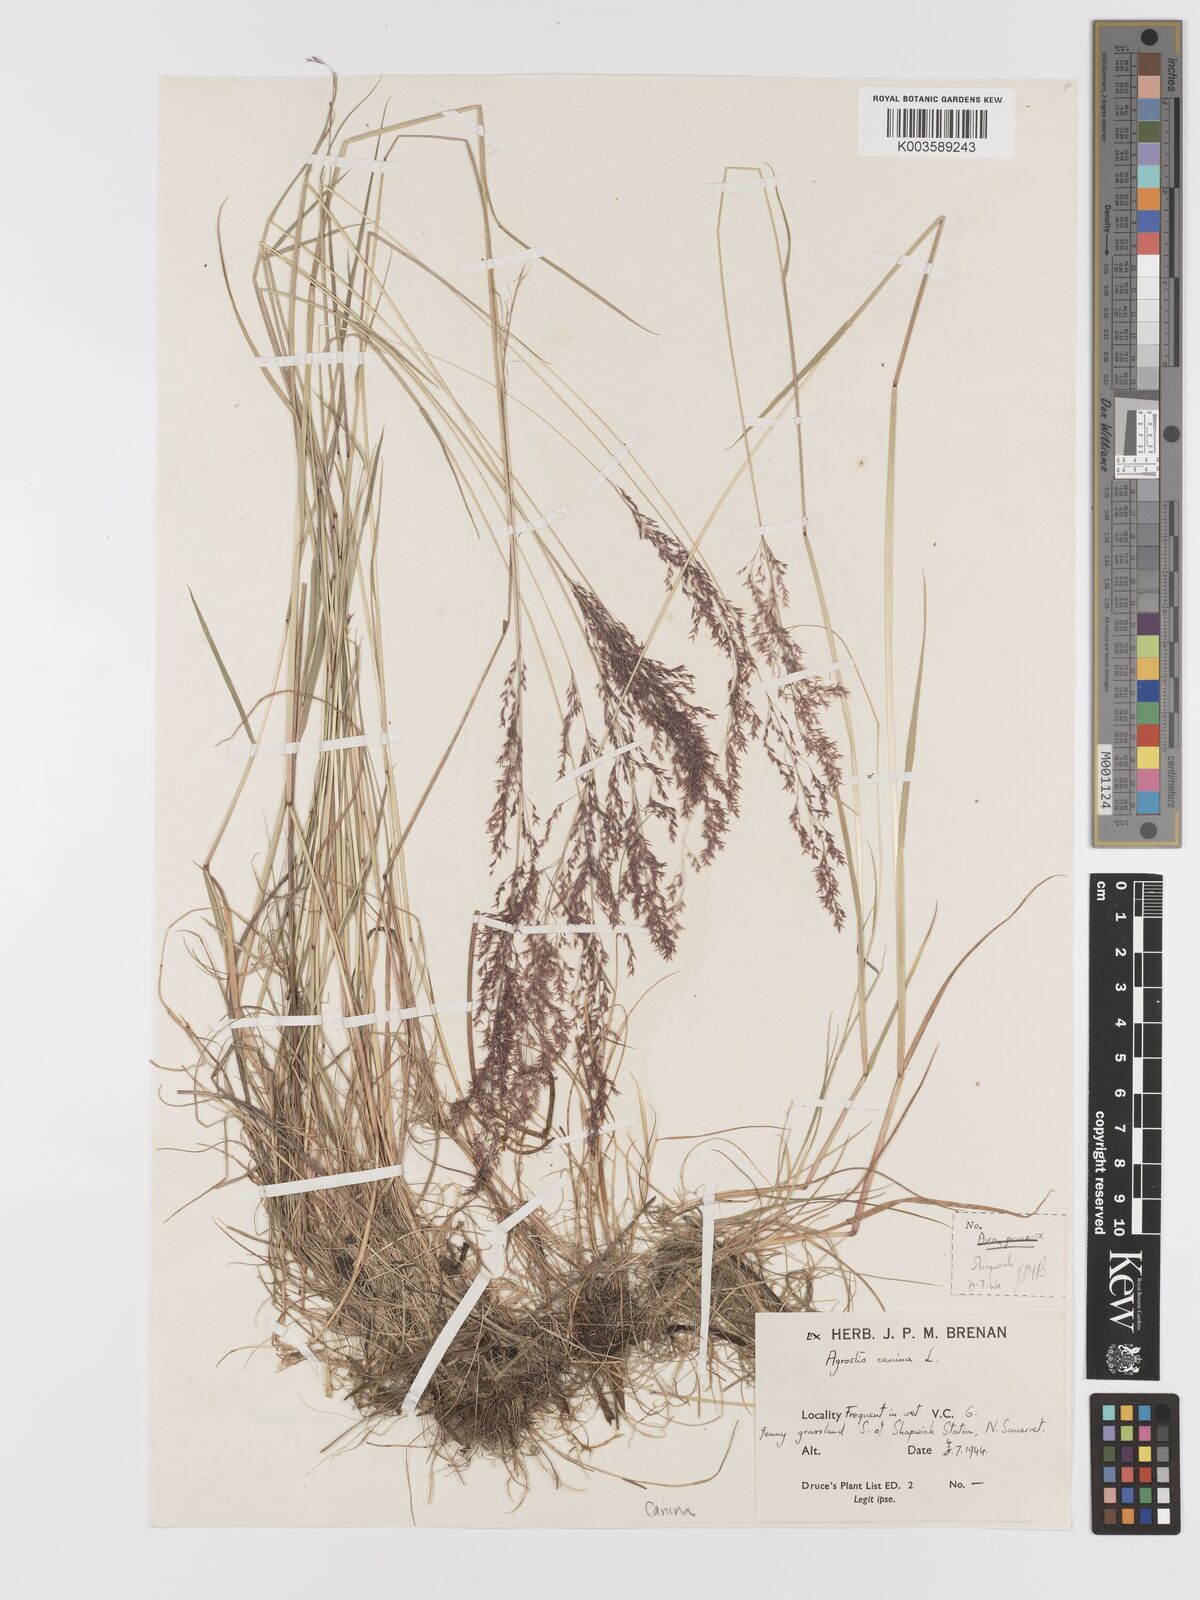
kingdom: Plantae
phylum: Tracheophyta
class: Liliopsida
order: Poales
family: Poaceae
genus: Agrostis
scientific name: Agrostis canina
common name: Velvet bent
